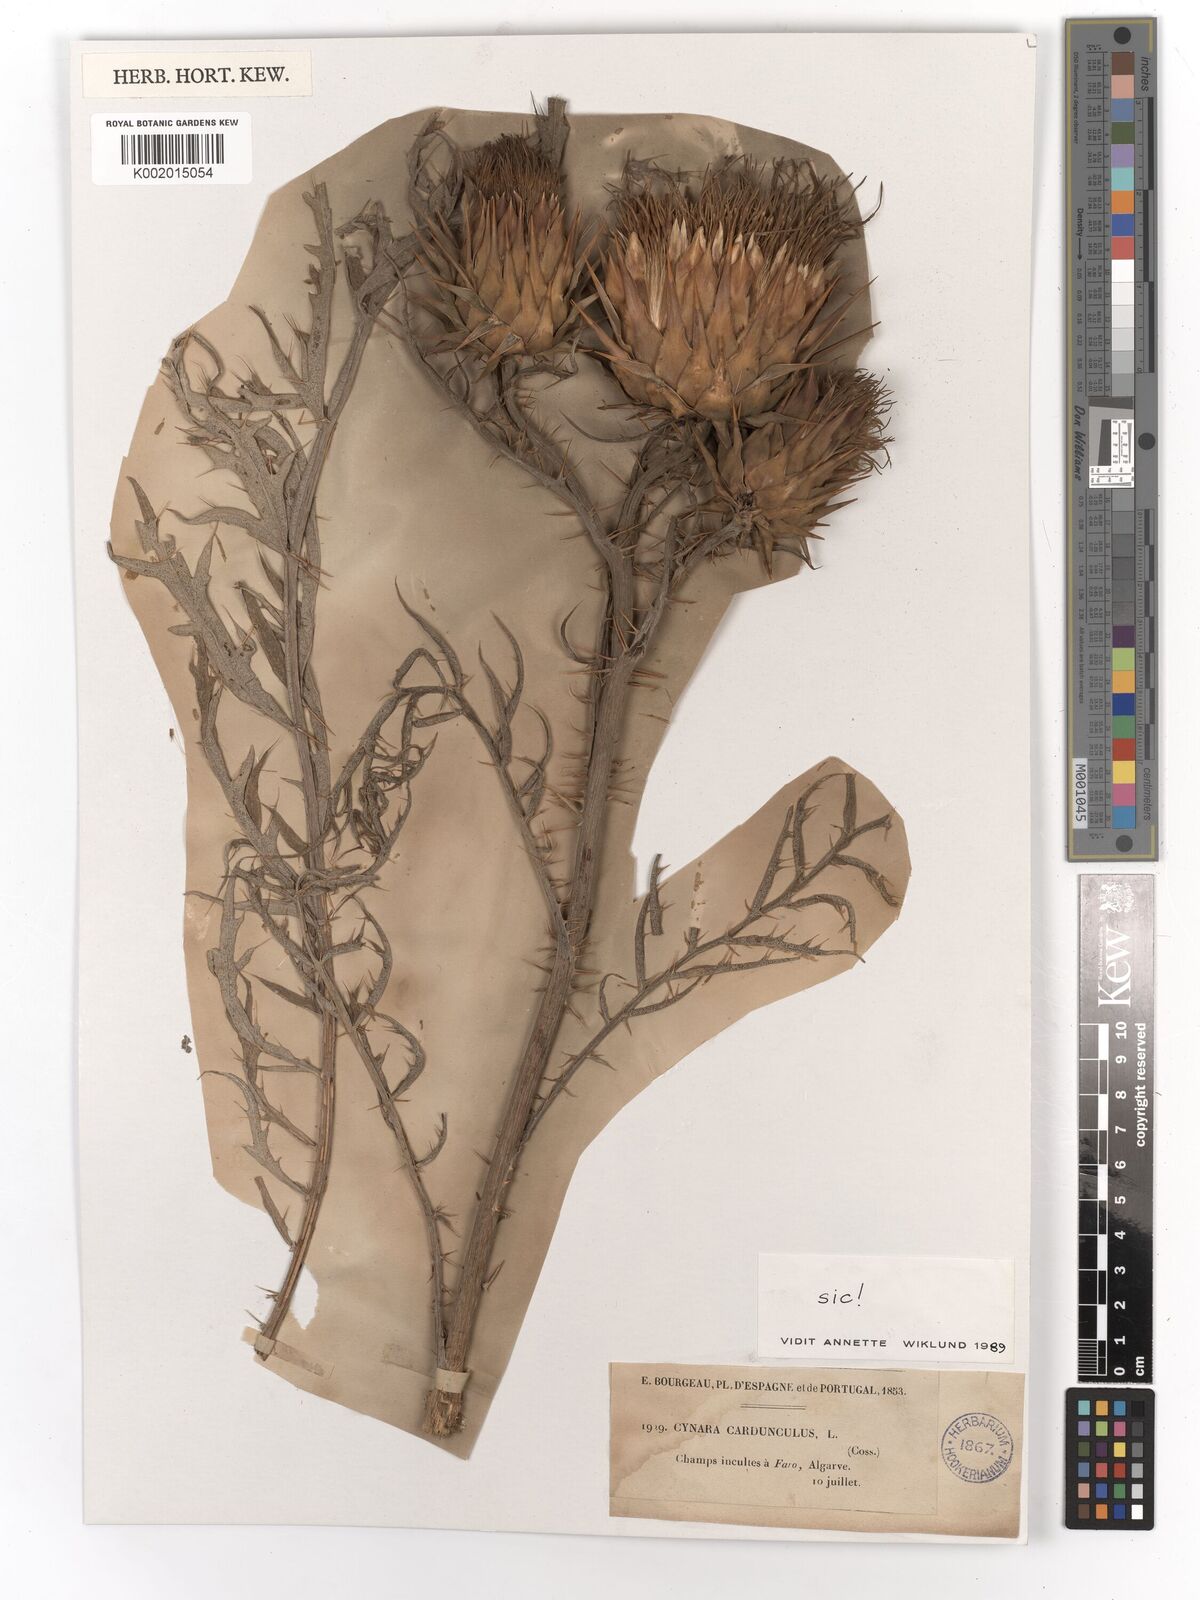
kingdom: Plantae
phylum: Tracheophyta
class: Magnoliopsida
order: Asterales
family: Asteraceae
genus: Cynara
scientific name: Cynara cardunculus
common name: Globe artichoke
